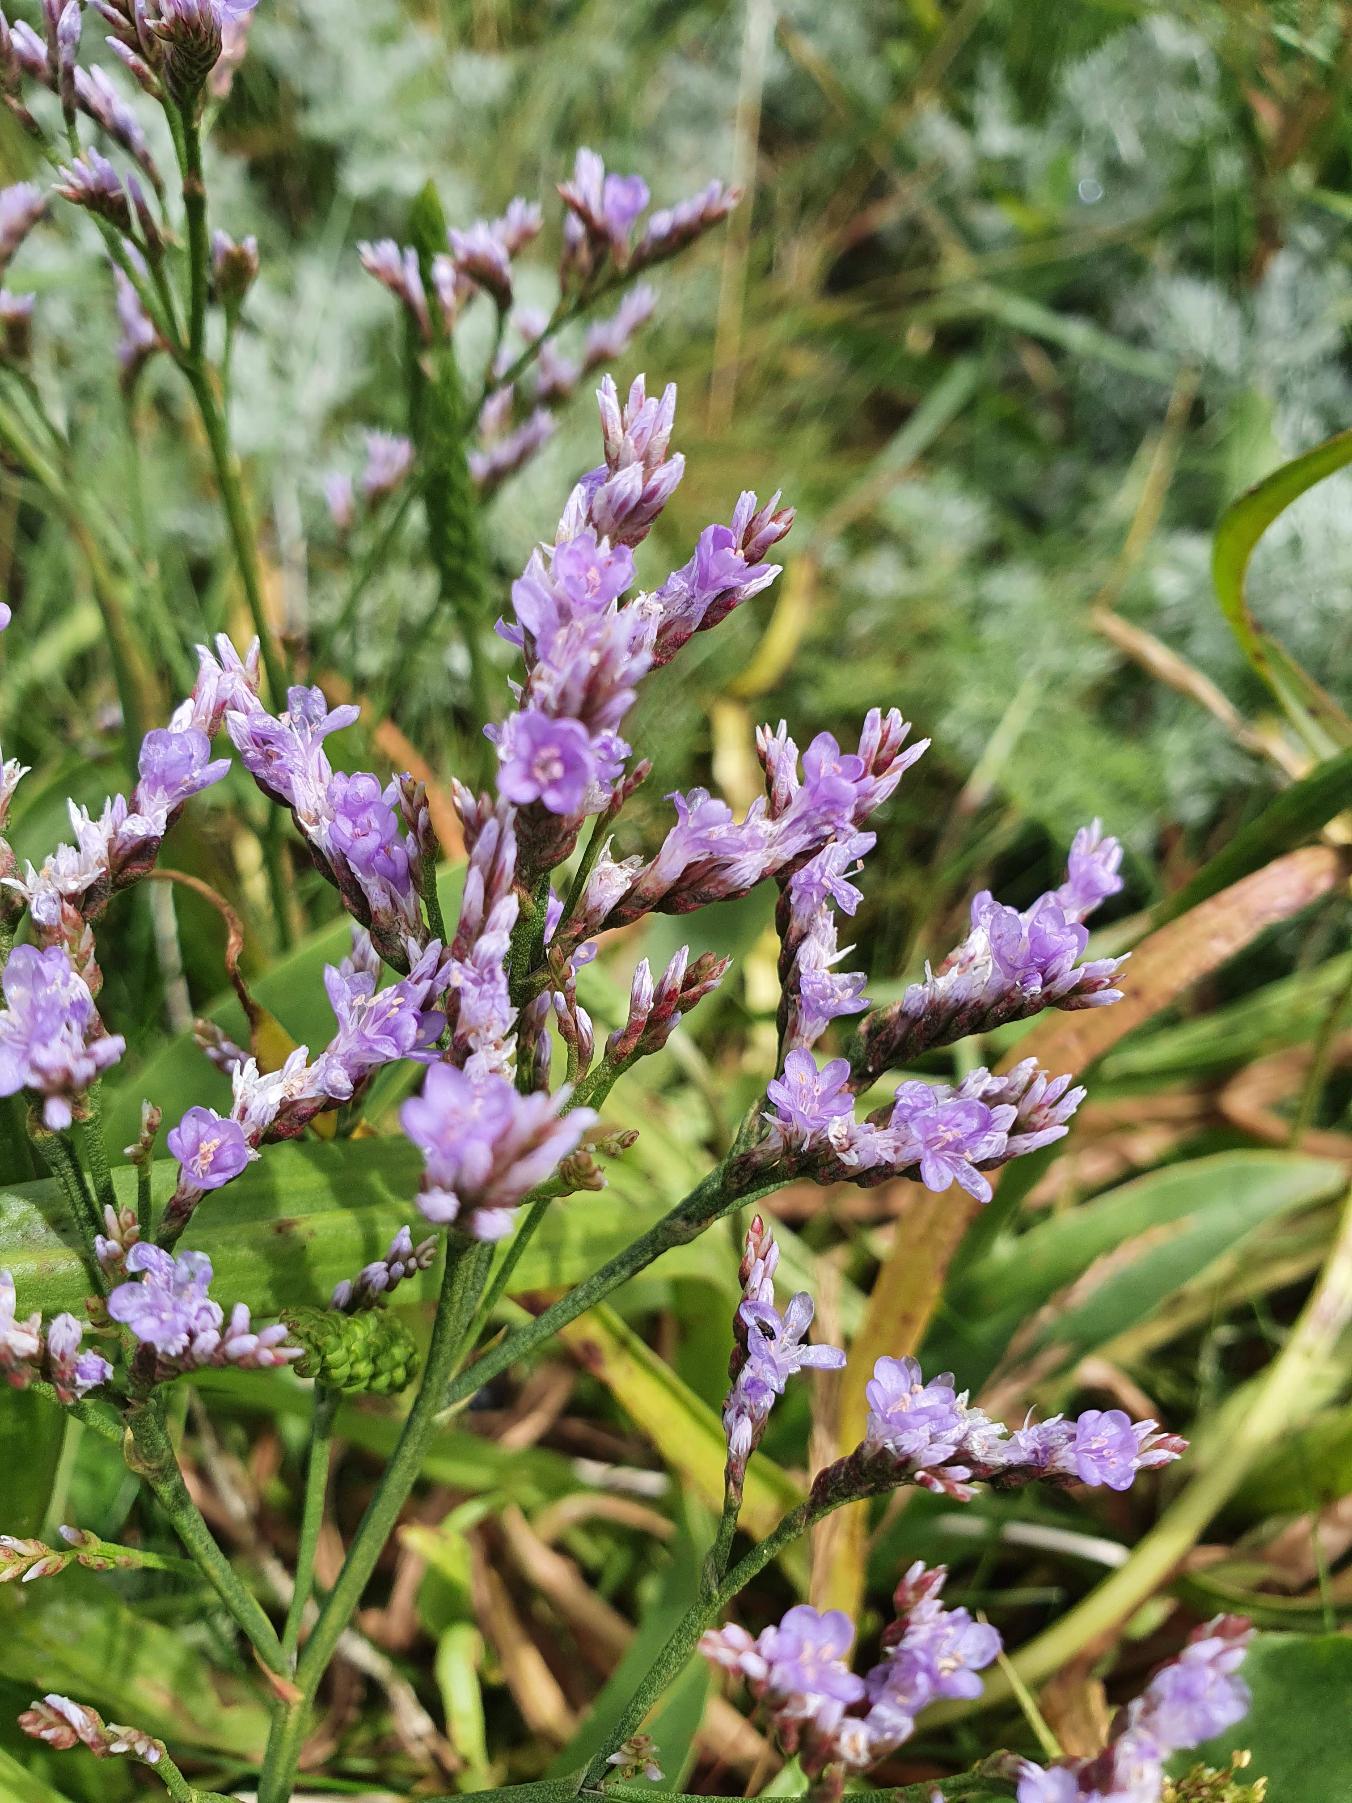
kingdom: Plantae
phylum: Tracheophyta
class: Magnoliopsida
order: Caryophyllales
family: Plumbaginaceae
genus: Limonium
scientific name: Limonium vulgare
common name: Tætblomstret hindebæger
